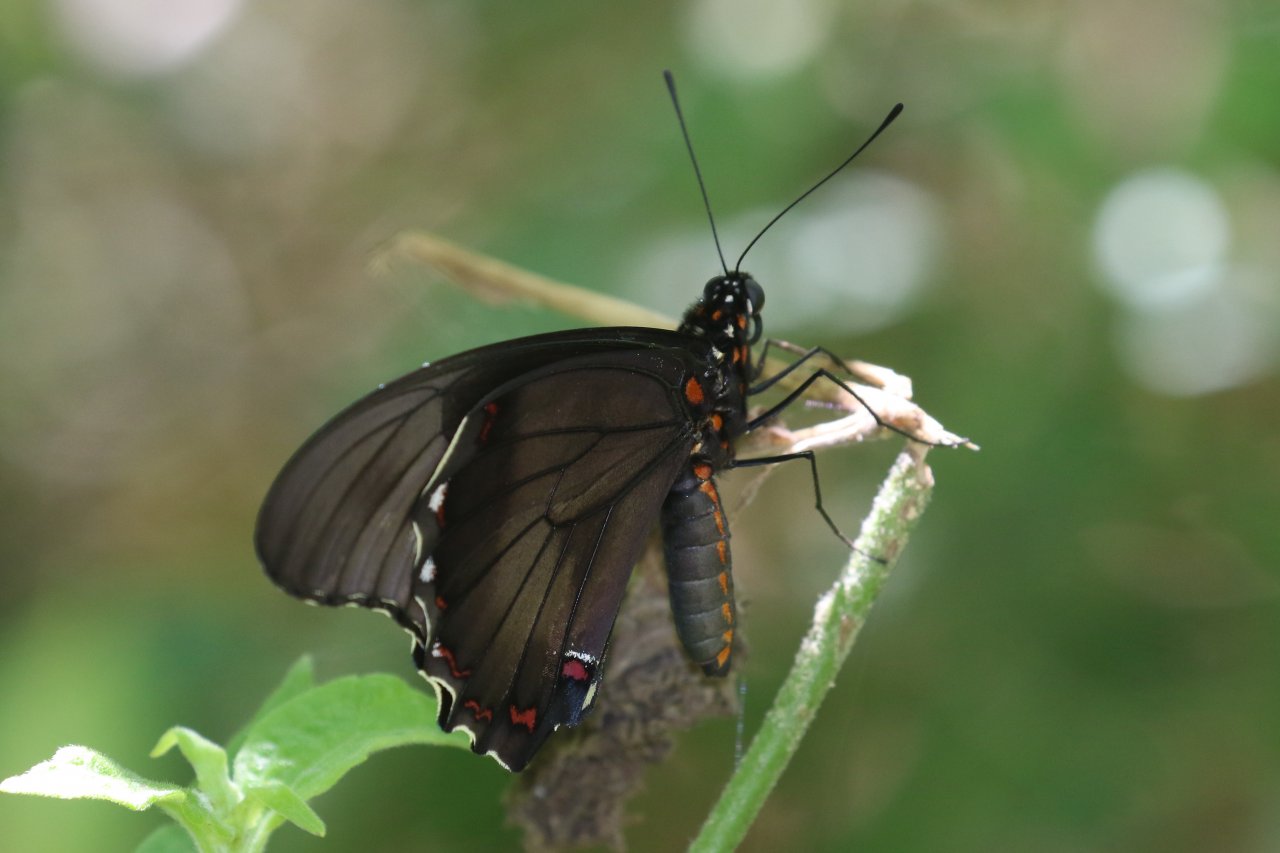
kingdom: Animalia
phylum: Arthropoda
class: Insecta
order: Lepidoptera
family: Papilionidae
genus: Battus
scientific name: Battus polydamas
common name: Polydamas Swallowtail
